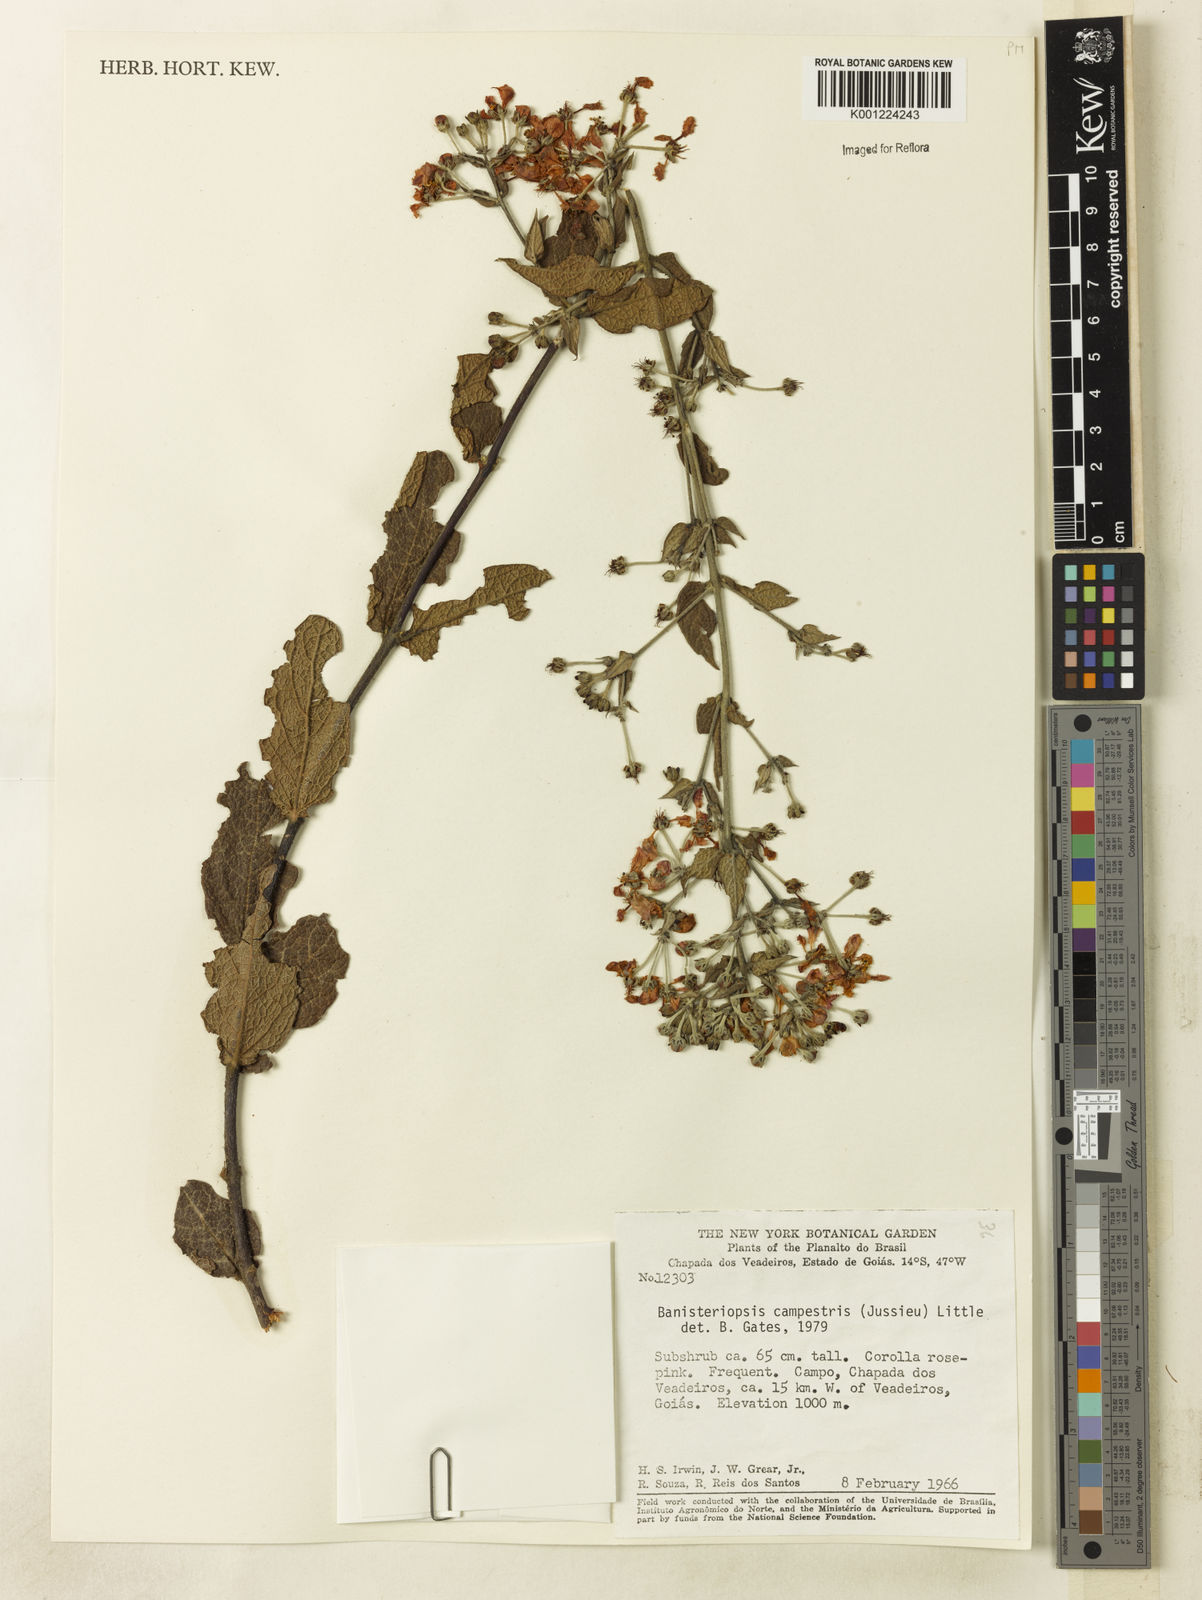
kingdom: Plantae
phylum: Tracheophyta
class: Magnoliopsida
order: Malpighiales
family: Malpighiaceae
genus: Banisteriopsis
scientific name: Banisteriopsis campestris
